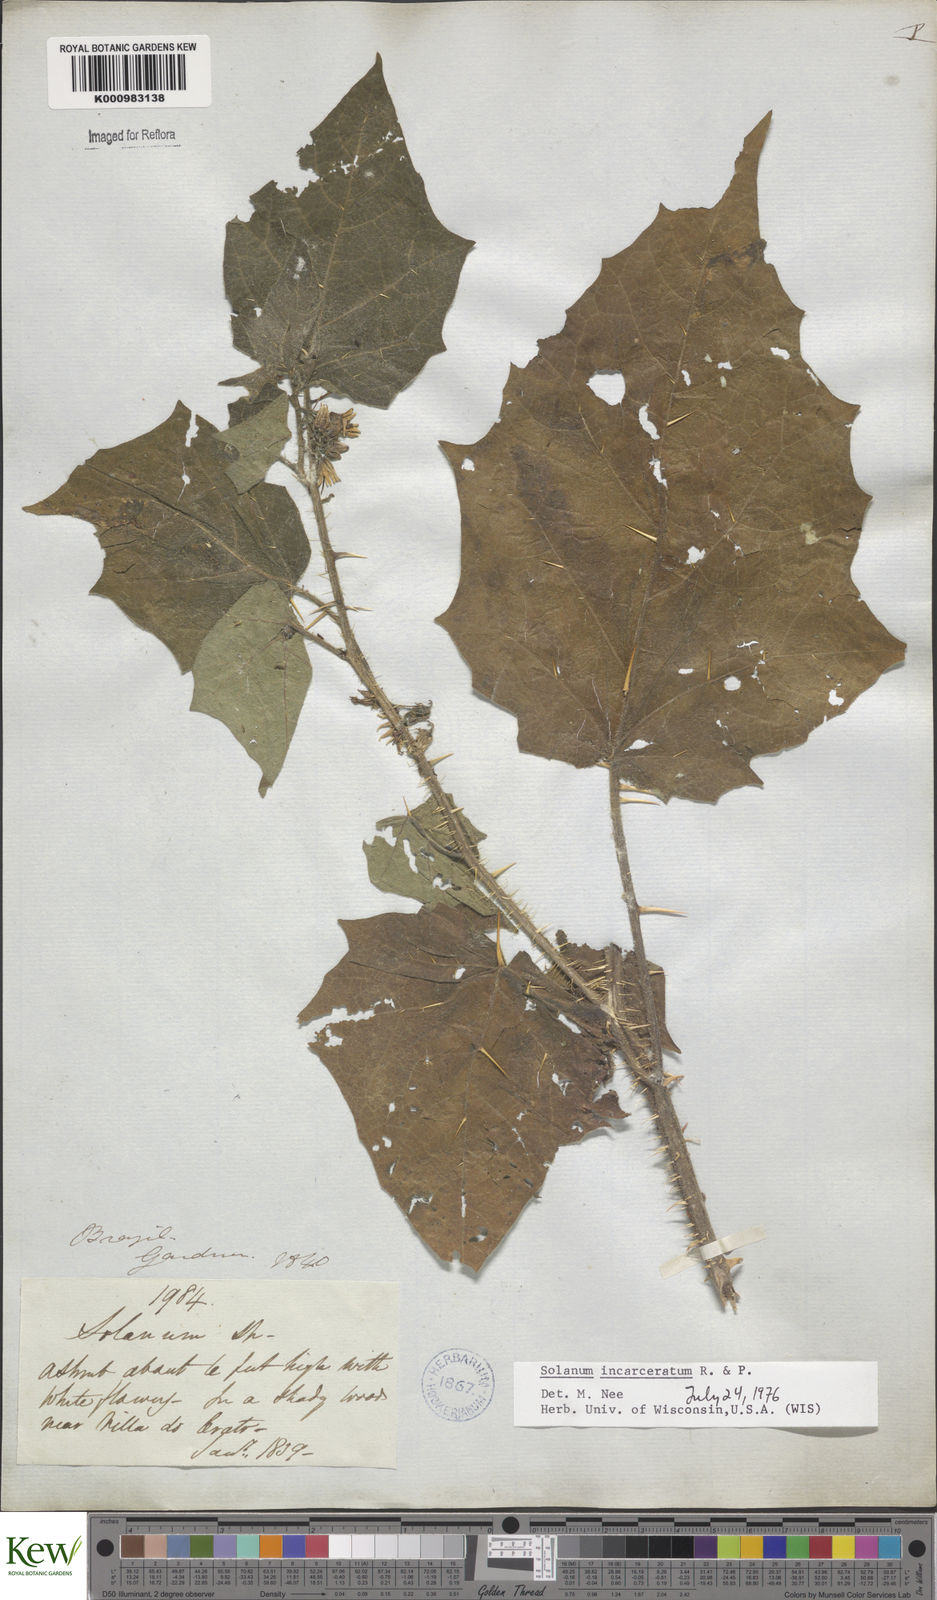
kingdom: Plantae
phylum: Tracheophyta
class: Magnoliopsida
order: Solanales
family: Solanaceae
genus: Solanum
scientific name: Solanum incarceratum
